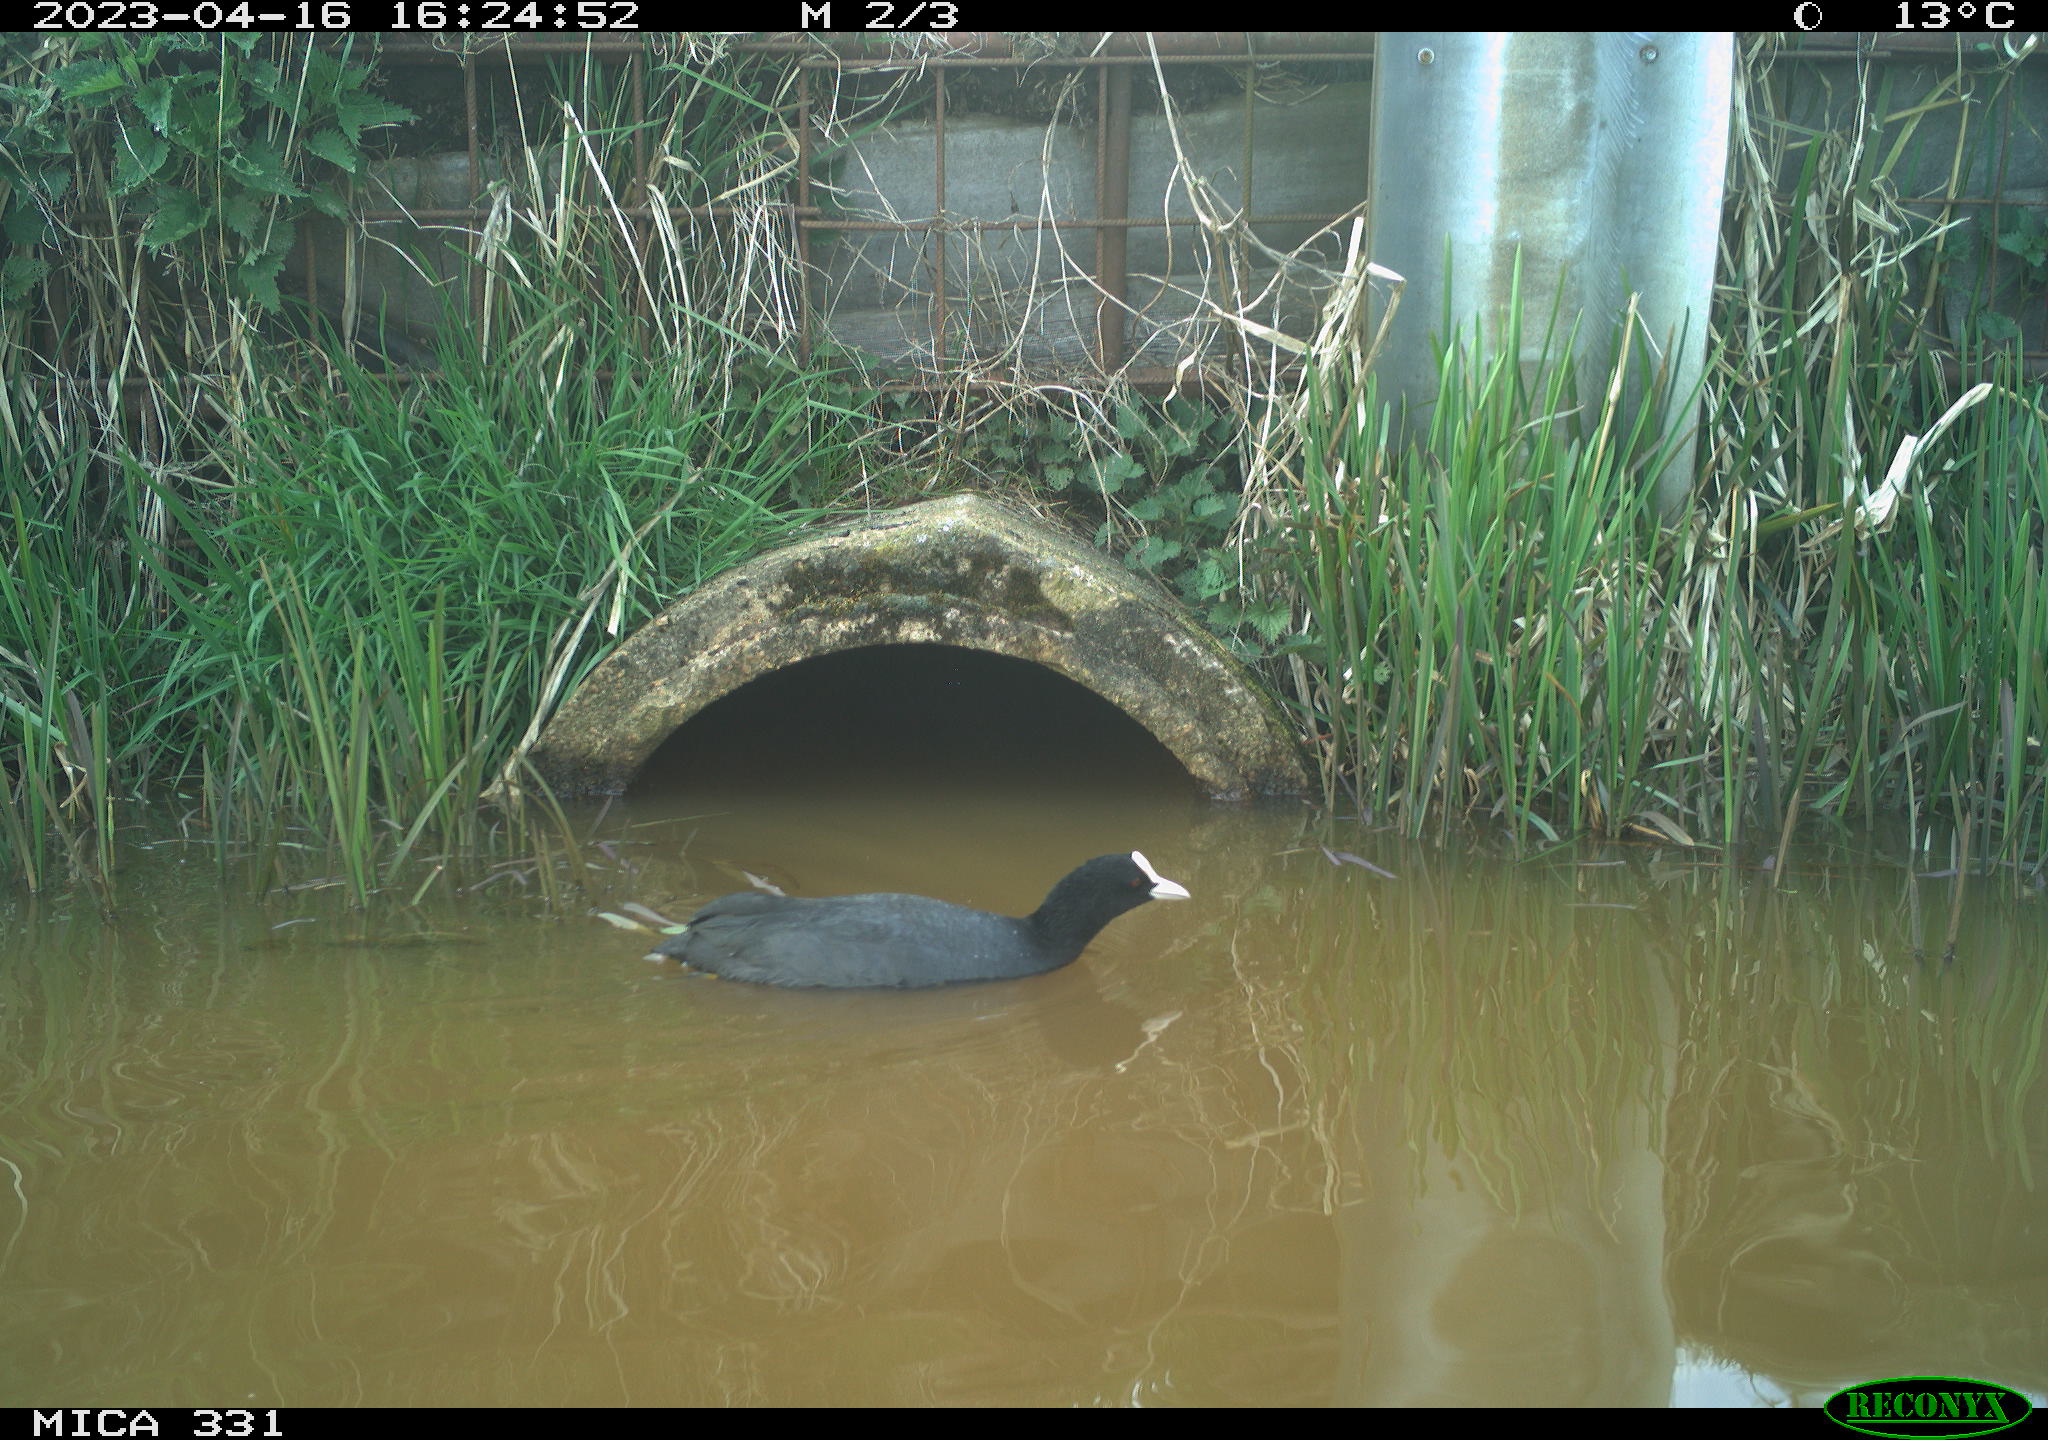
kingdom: Animalia
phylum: Chordata
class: Aves
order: Gruiformes
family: Rallidae
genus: Fulica
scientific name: Fulica atra
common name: Eurasian coot
